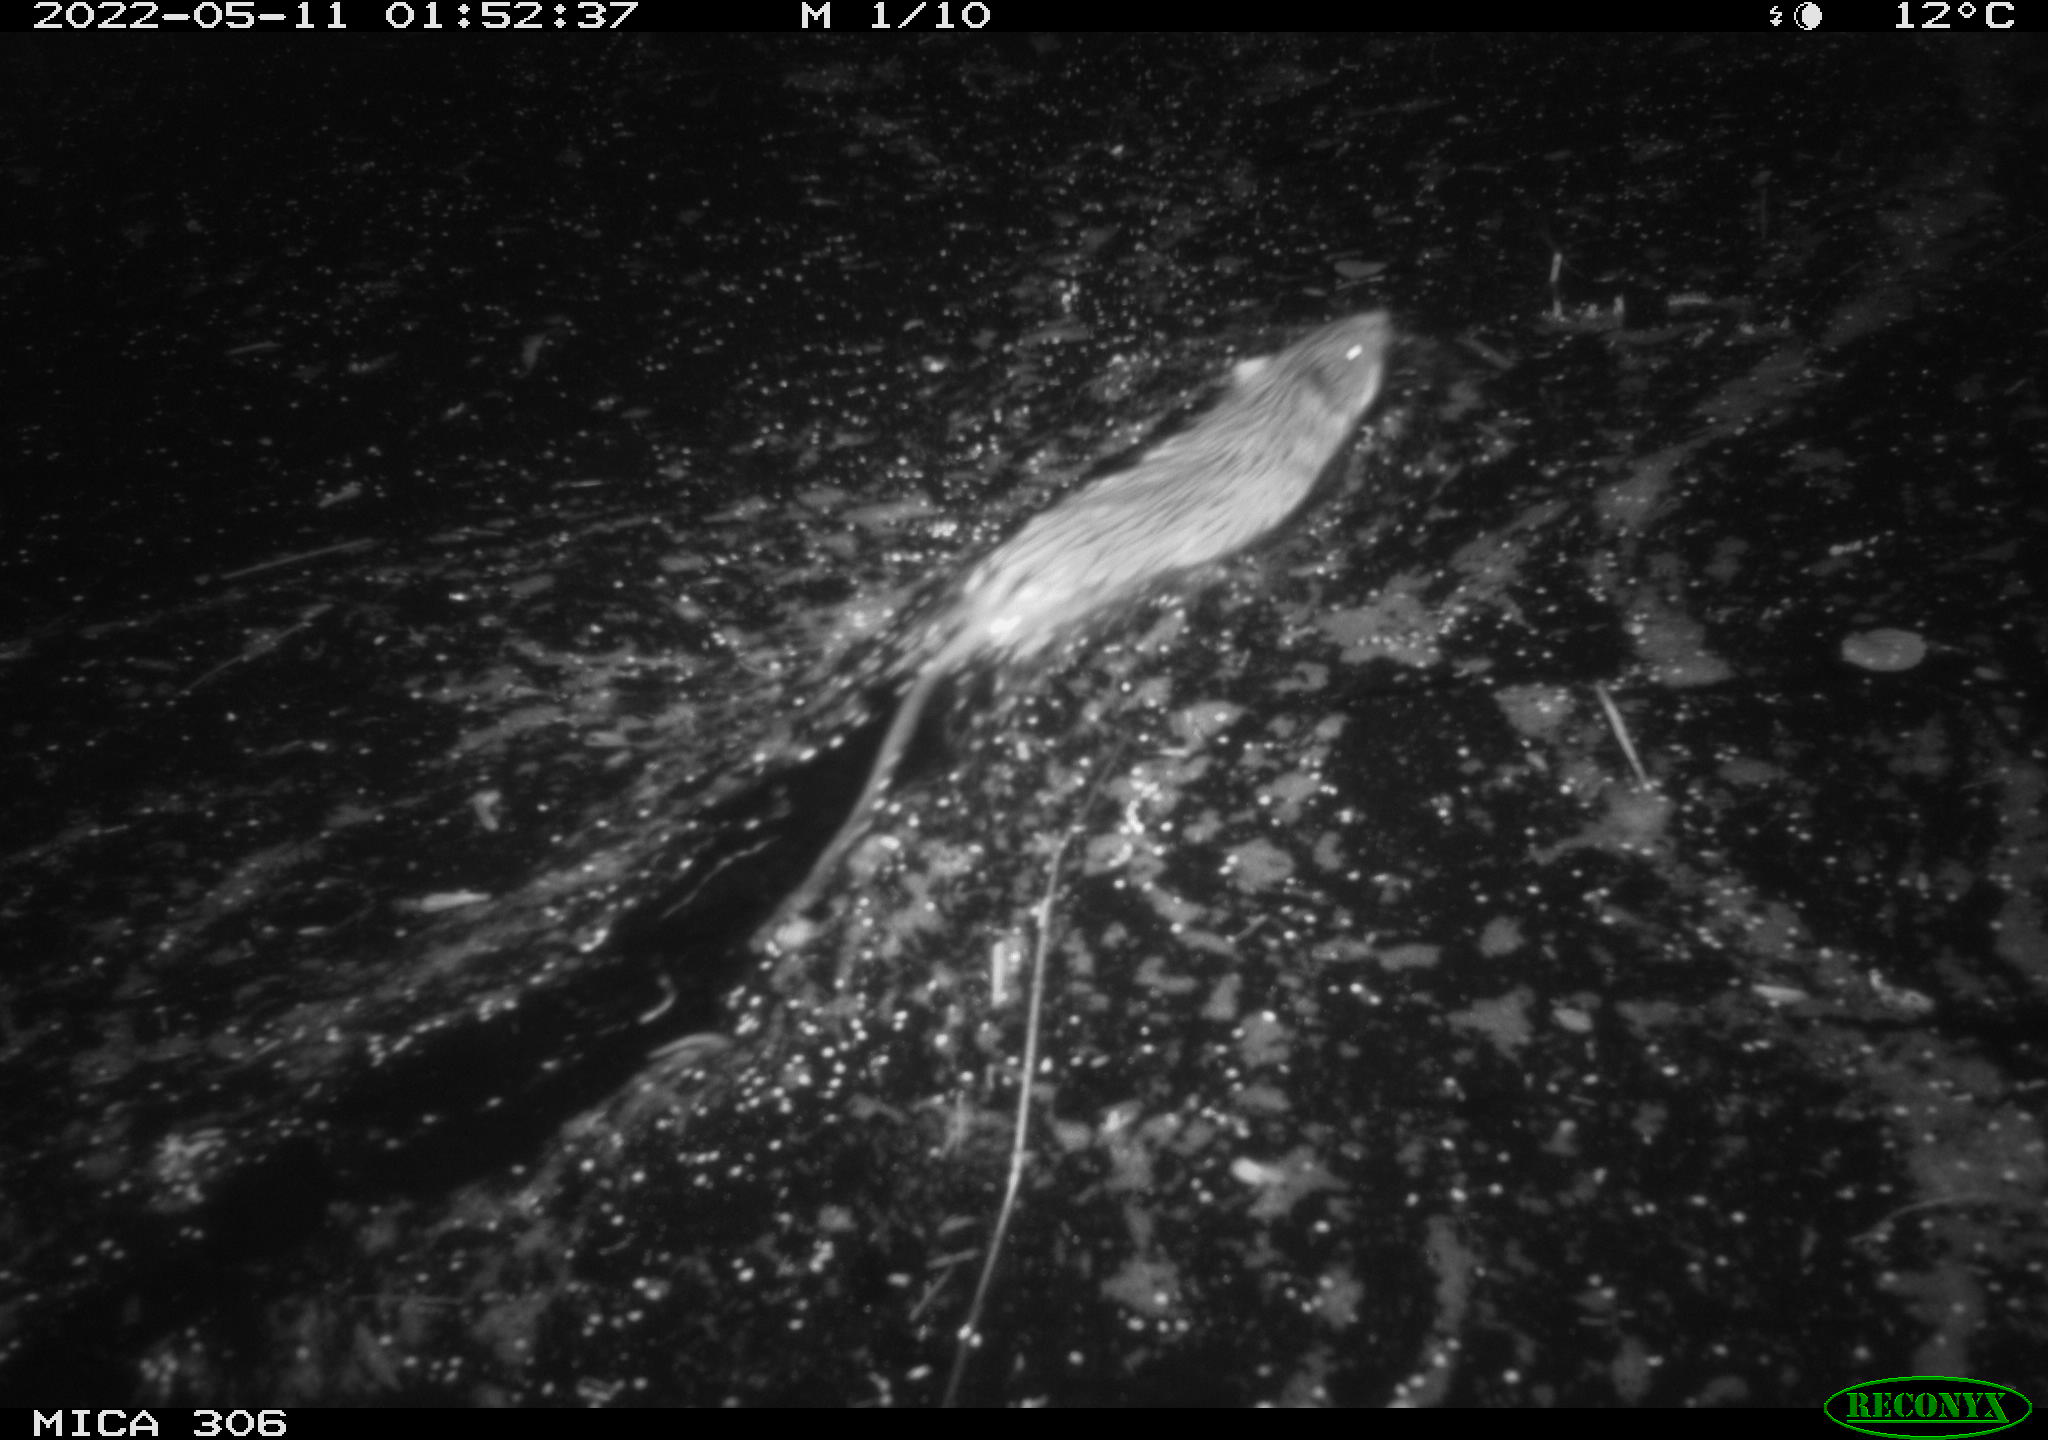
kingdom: Animalia
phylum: Chordata
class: Mammalia
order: Rodentia
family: Muridae
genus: Rattus
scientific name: Rattus norvegicus
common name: Brown rat
